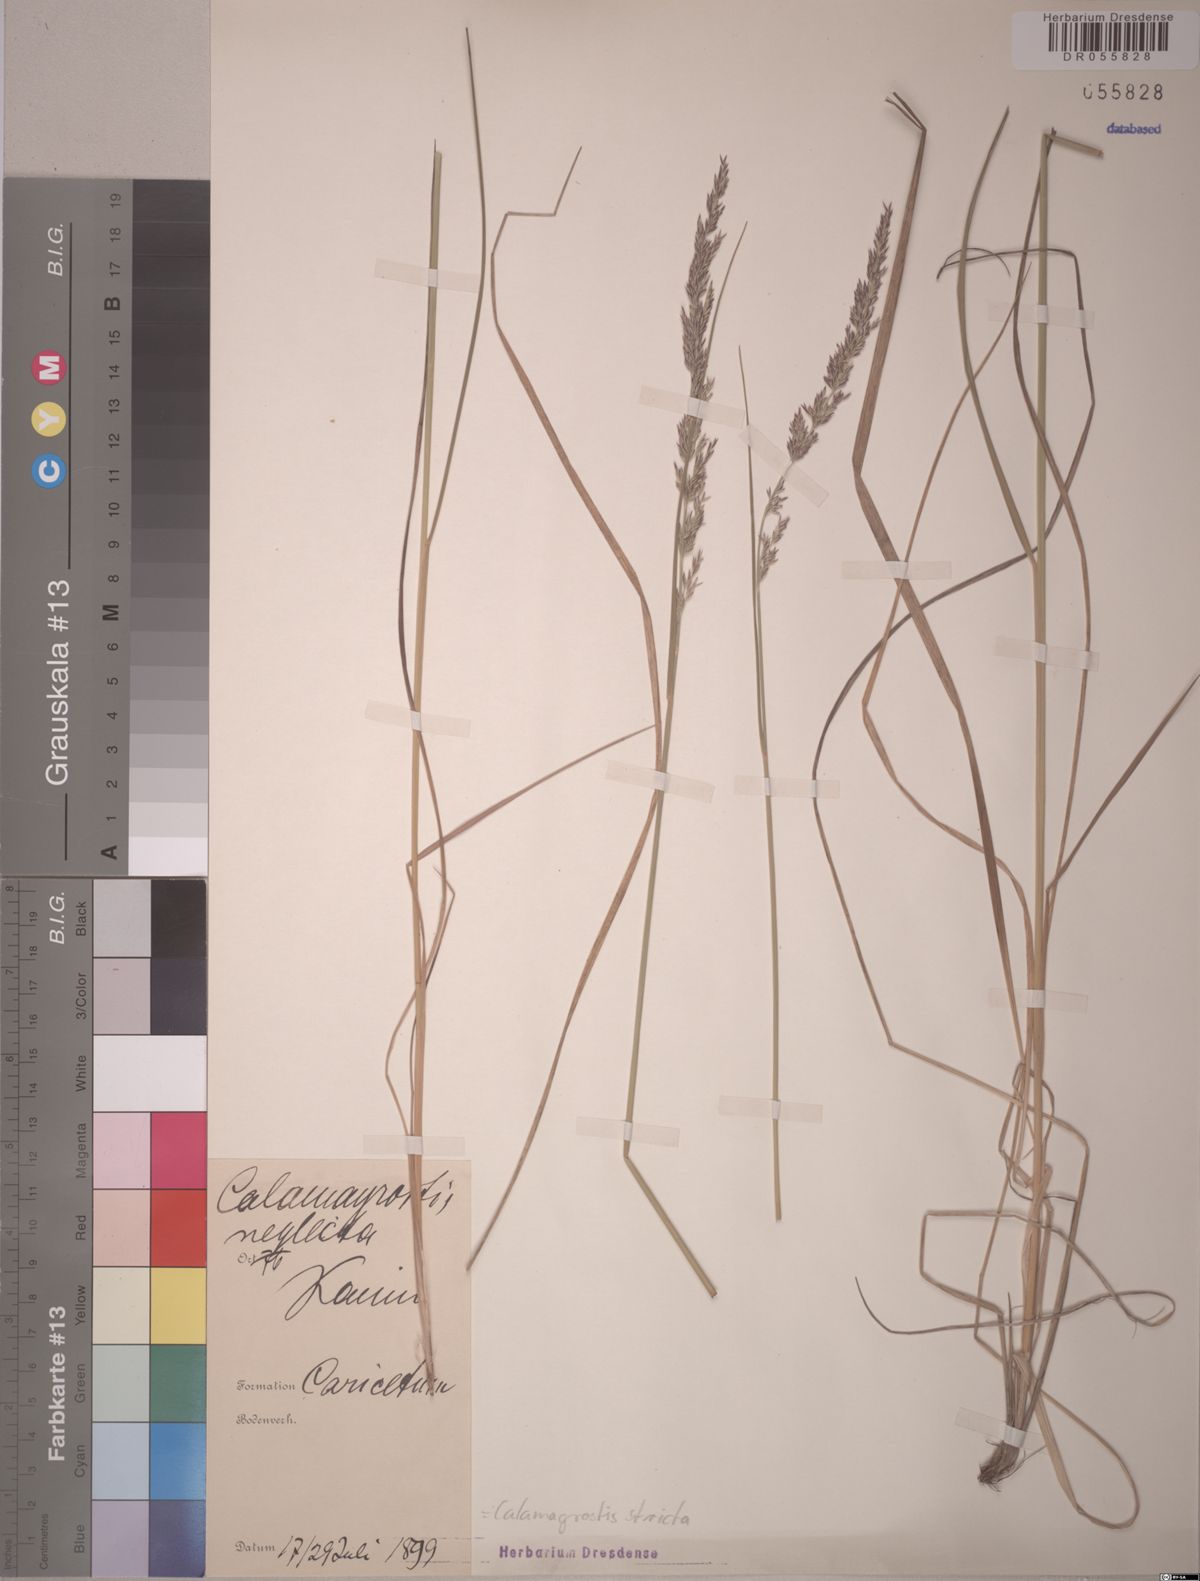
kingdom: Plantae
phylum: Tracheophyta
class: Liliopsida
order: Poales
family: Poaceae
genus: Calamagrostis
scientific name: Calamagrostis stricta
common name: Narrow small-reed
